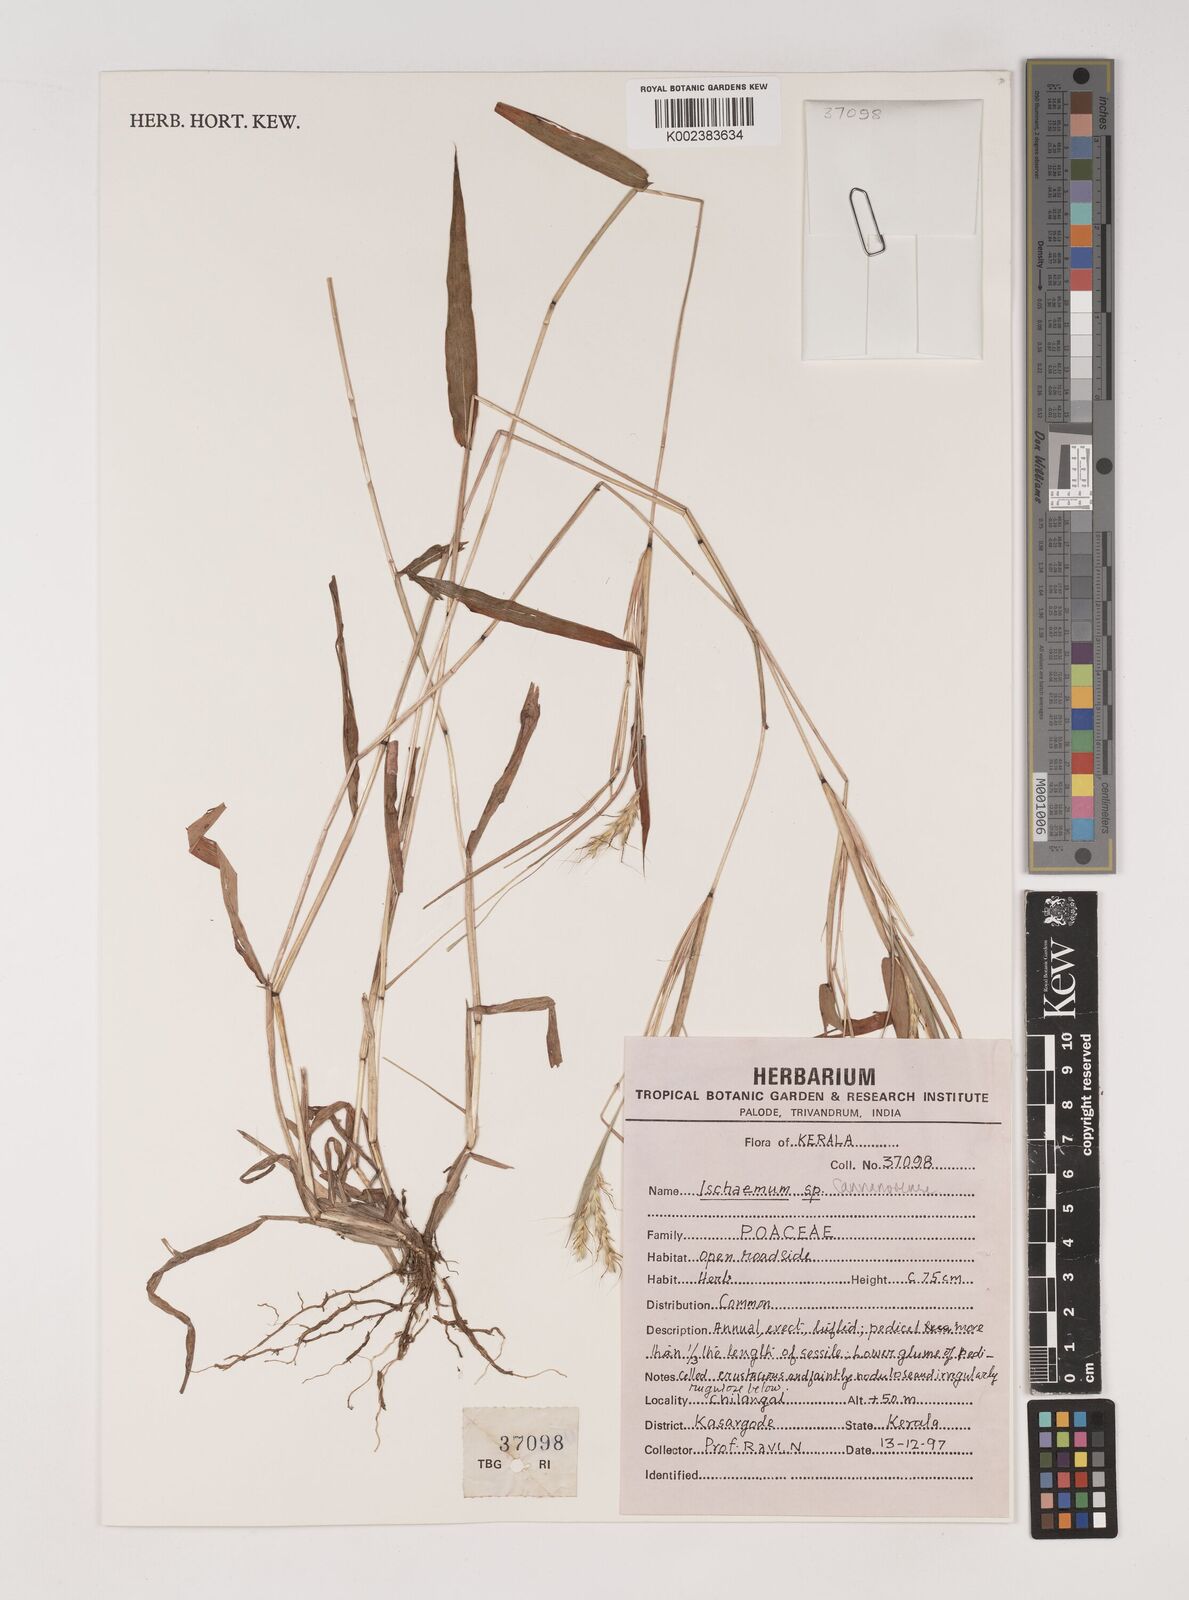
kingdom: Plantae
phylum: Tracheophyta
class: Liliopsida
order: Poales
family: Poaceae
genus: Ischaemum
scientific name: Ischaemum cannanorense
